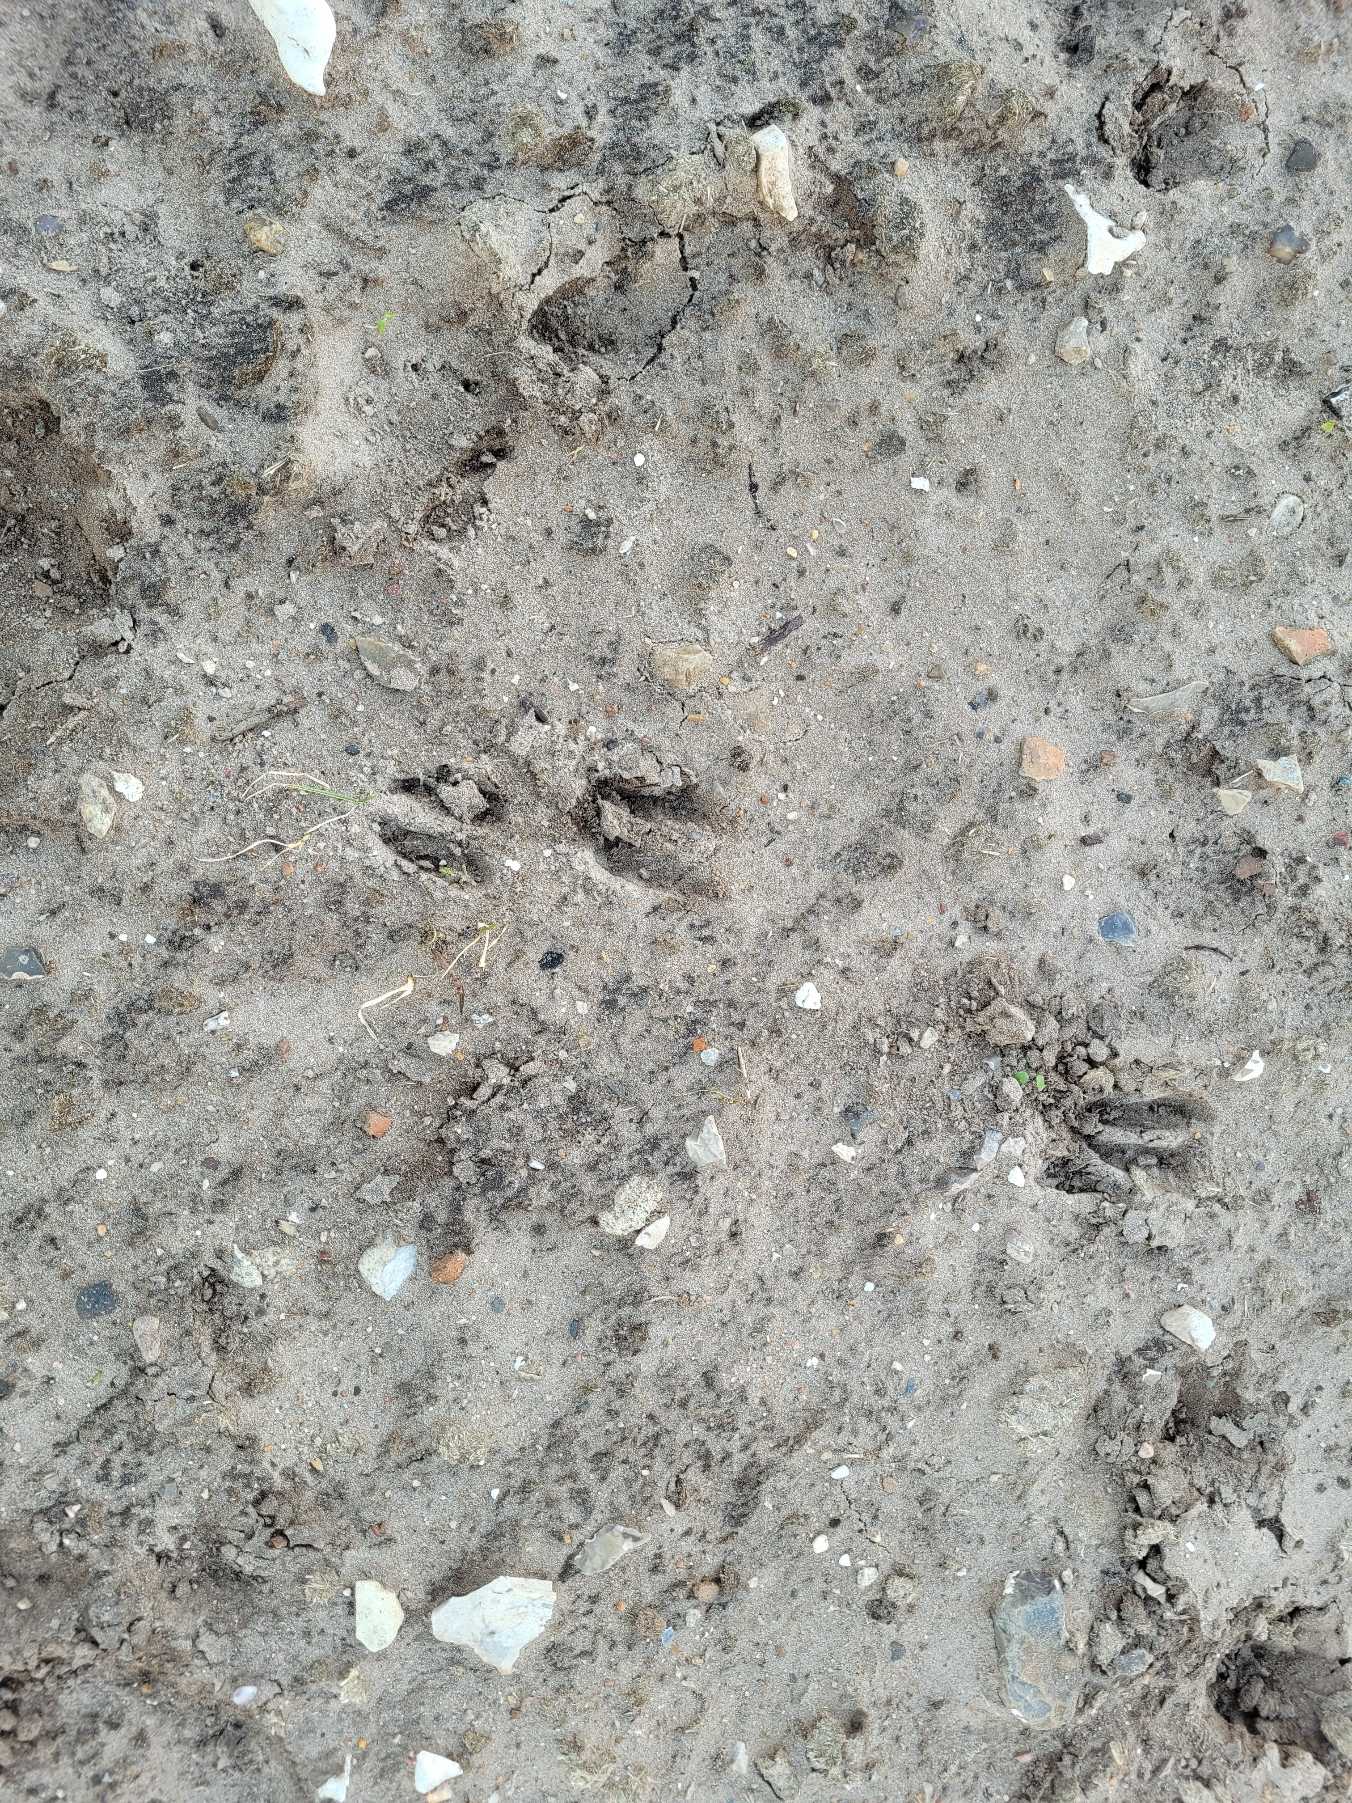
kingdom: Animalia
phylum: Chordata
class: Mammalia
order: Artiodactyla
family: Cervidae
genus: Capreolus
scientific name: Capreolus capreolus
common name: Rådyr
